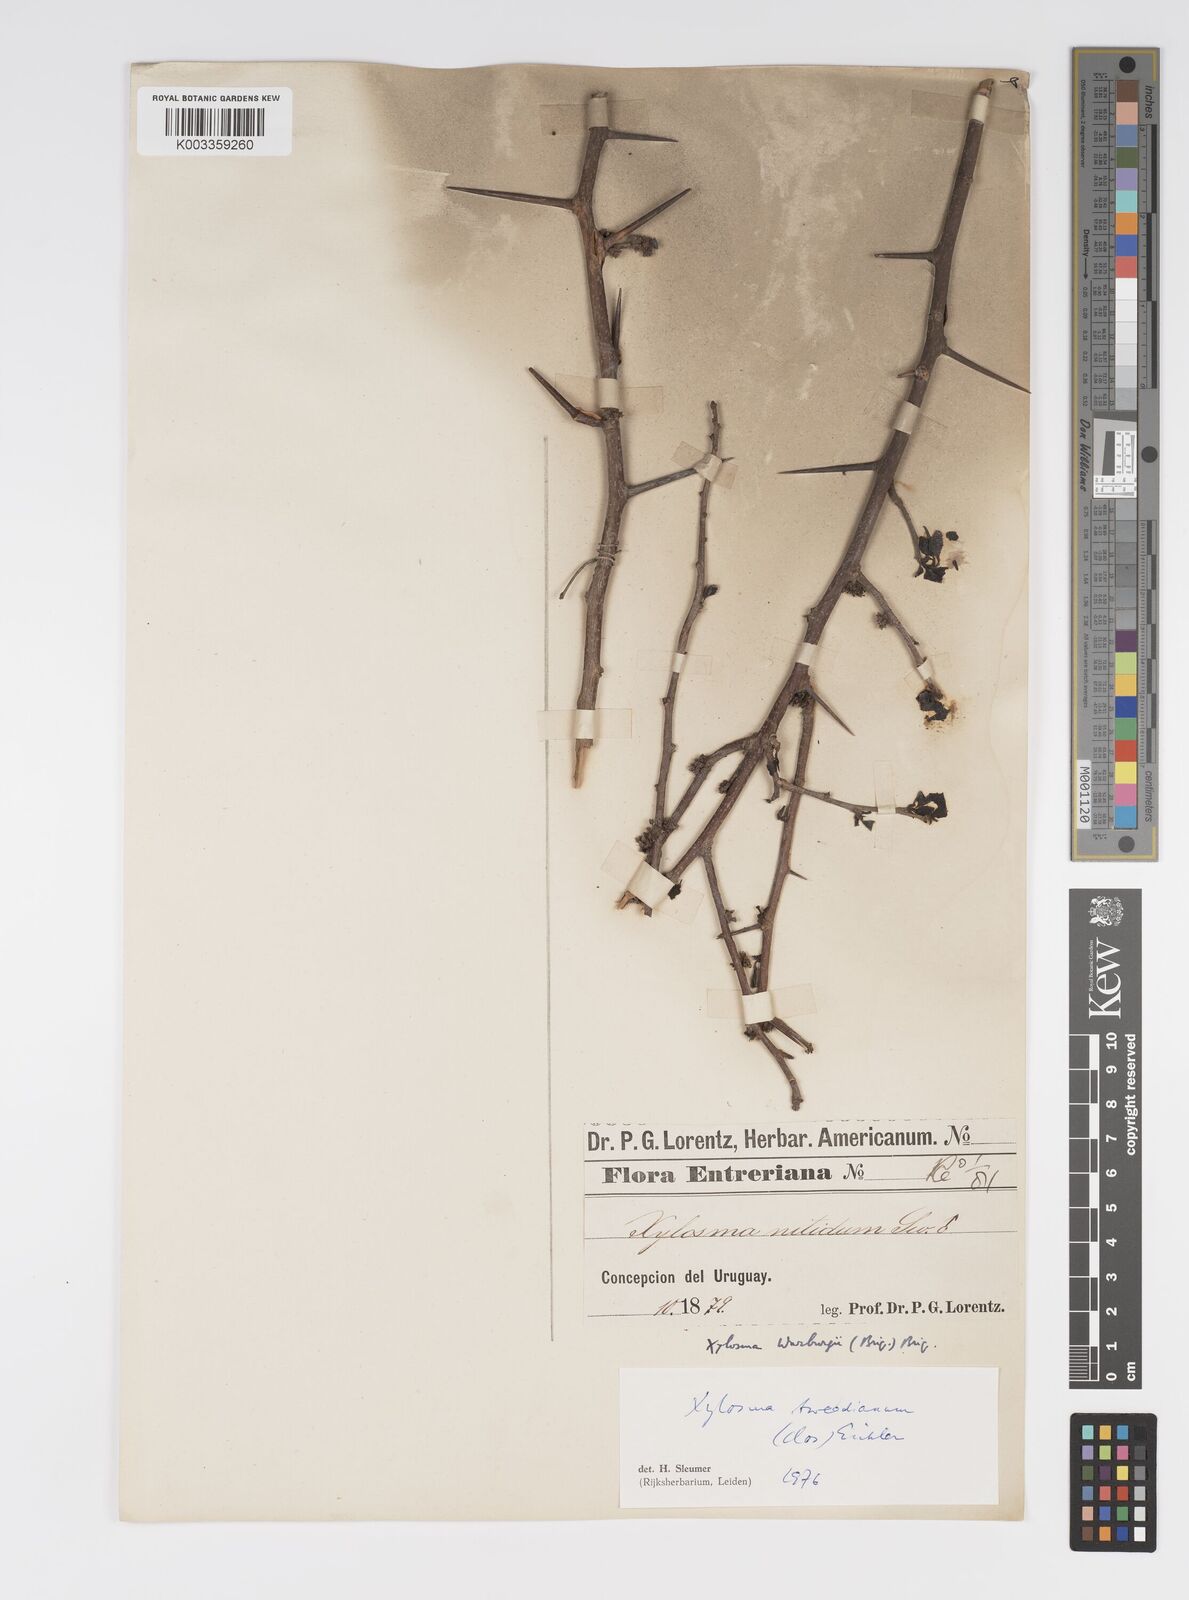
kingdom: Plantae
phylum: Tracheophyta
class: Magnoliopsida
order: Malpighiales
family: Salicaceae
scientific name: Salicaceae
